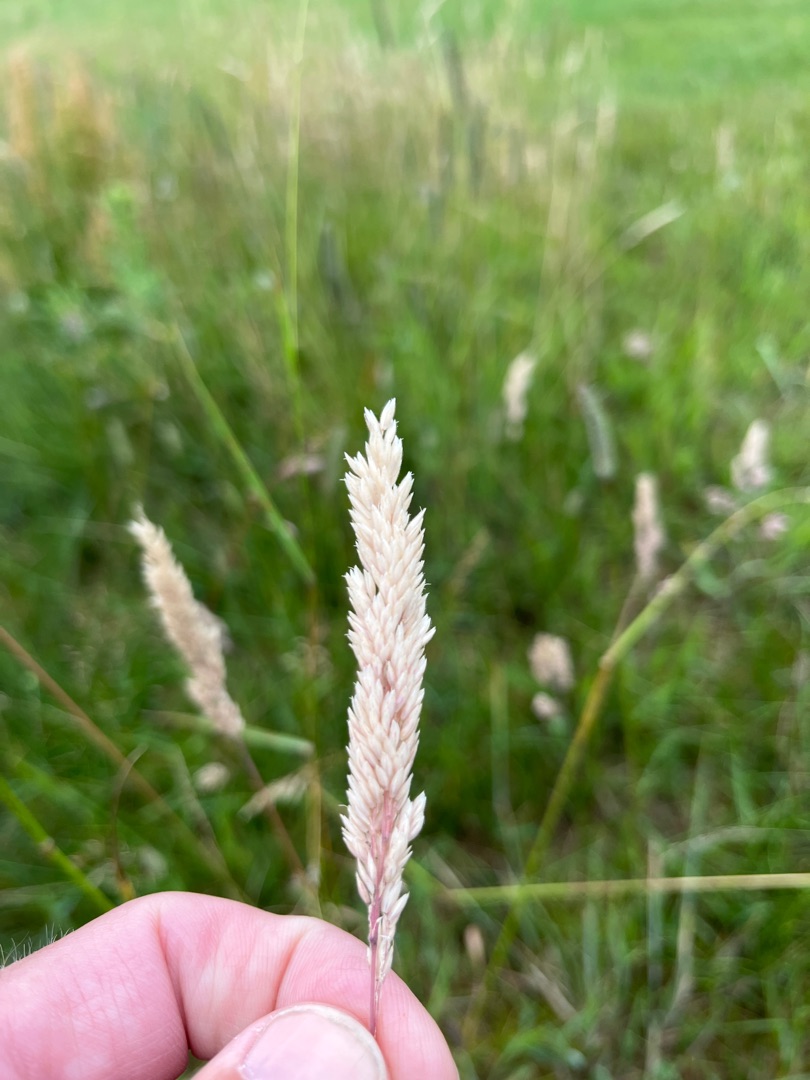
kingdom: Plantae
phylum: Tracheophyta
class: Liliopsida
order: Poales
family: Poaceae
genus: Holcus
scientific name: Holcus lanatus
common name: Fløjlsgræs
